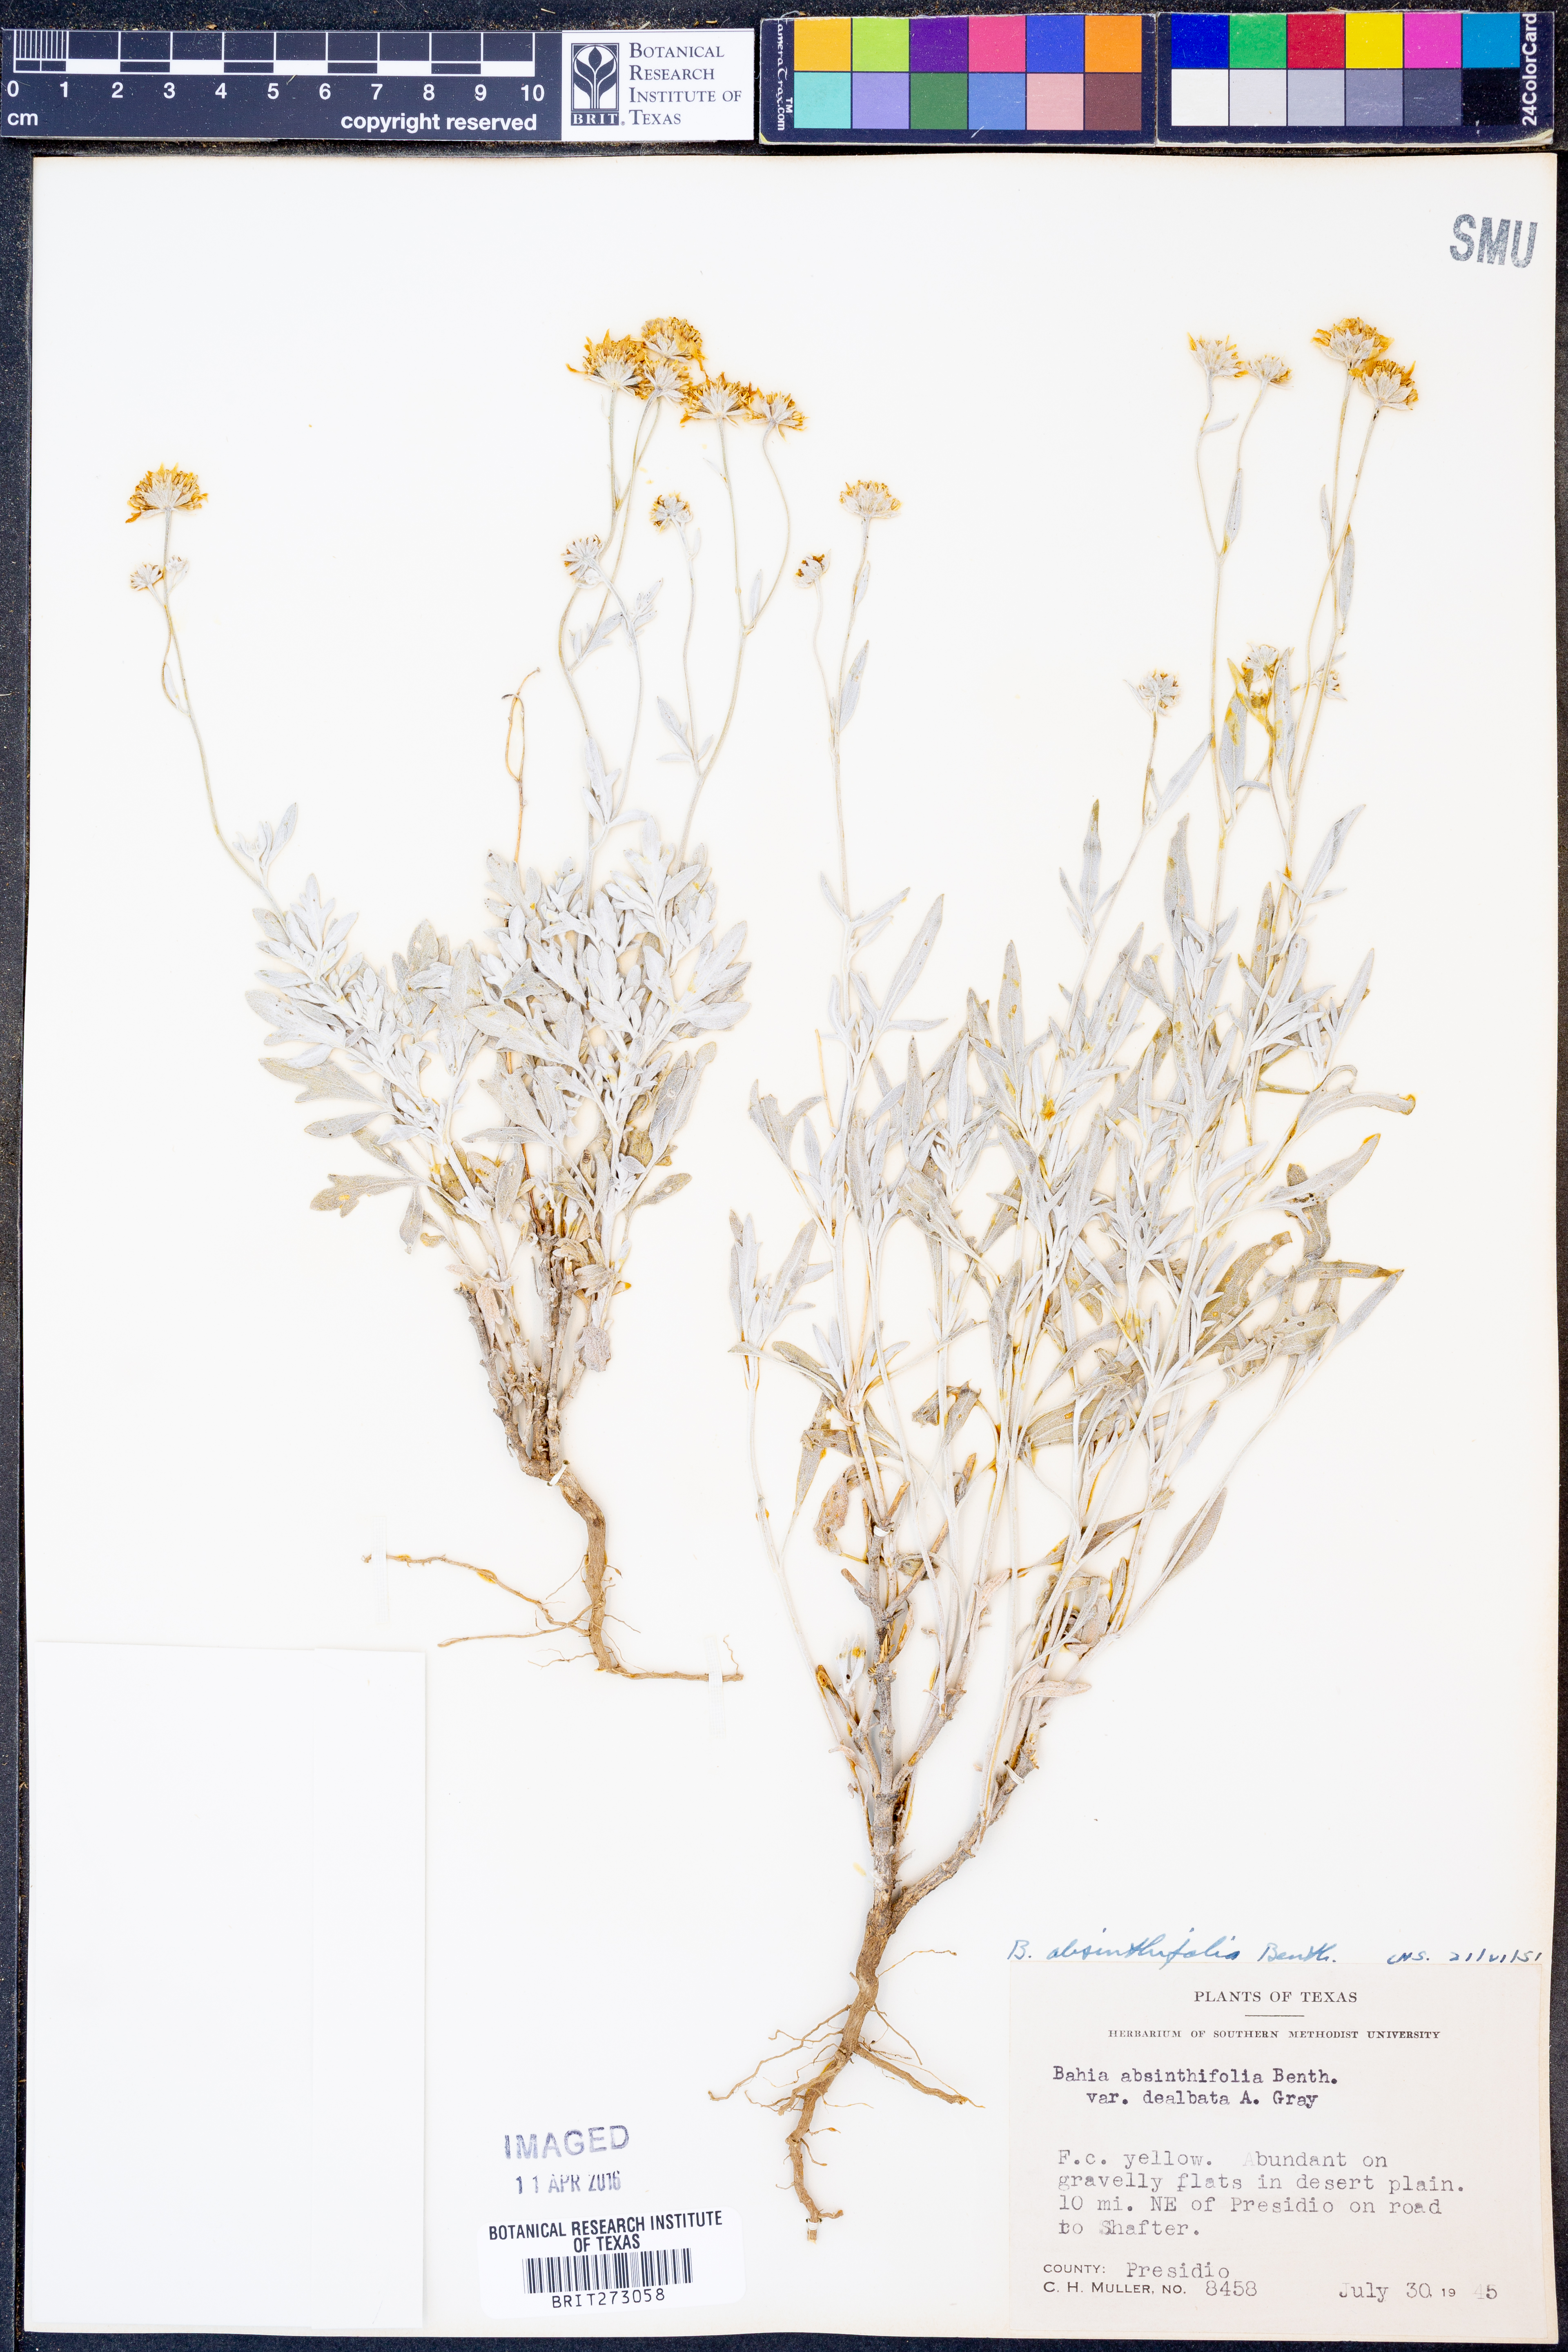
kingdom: Plantae
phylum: Tracheophyta
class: Magnoliopsida
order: Asterales
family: Asteraceae
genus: Picradeniopsis
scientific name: Picradeniopsis absinthifolia
